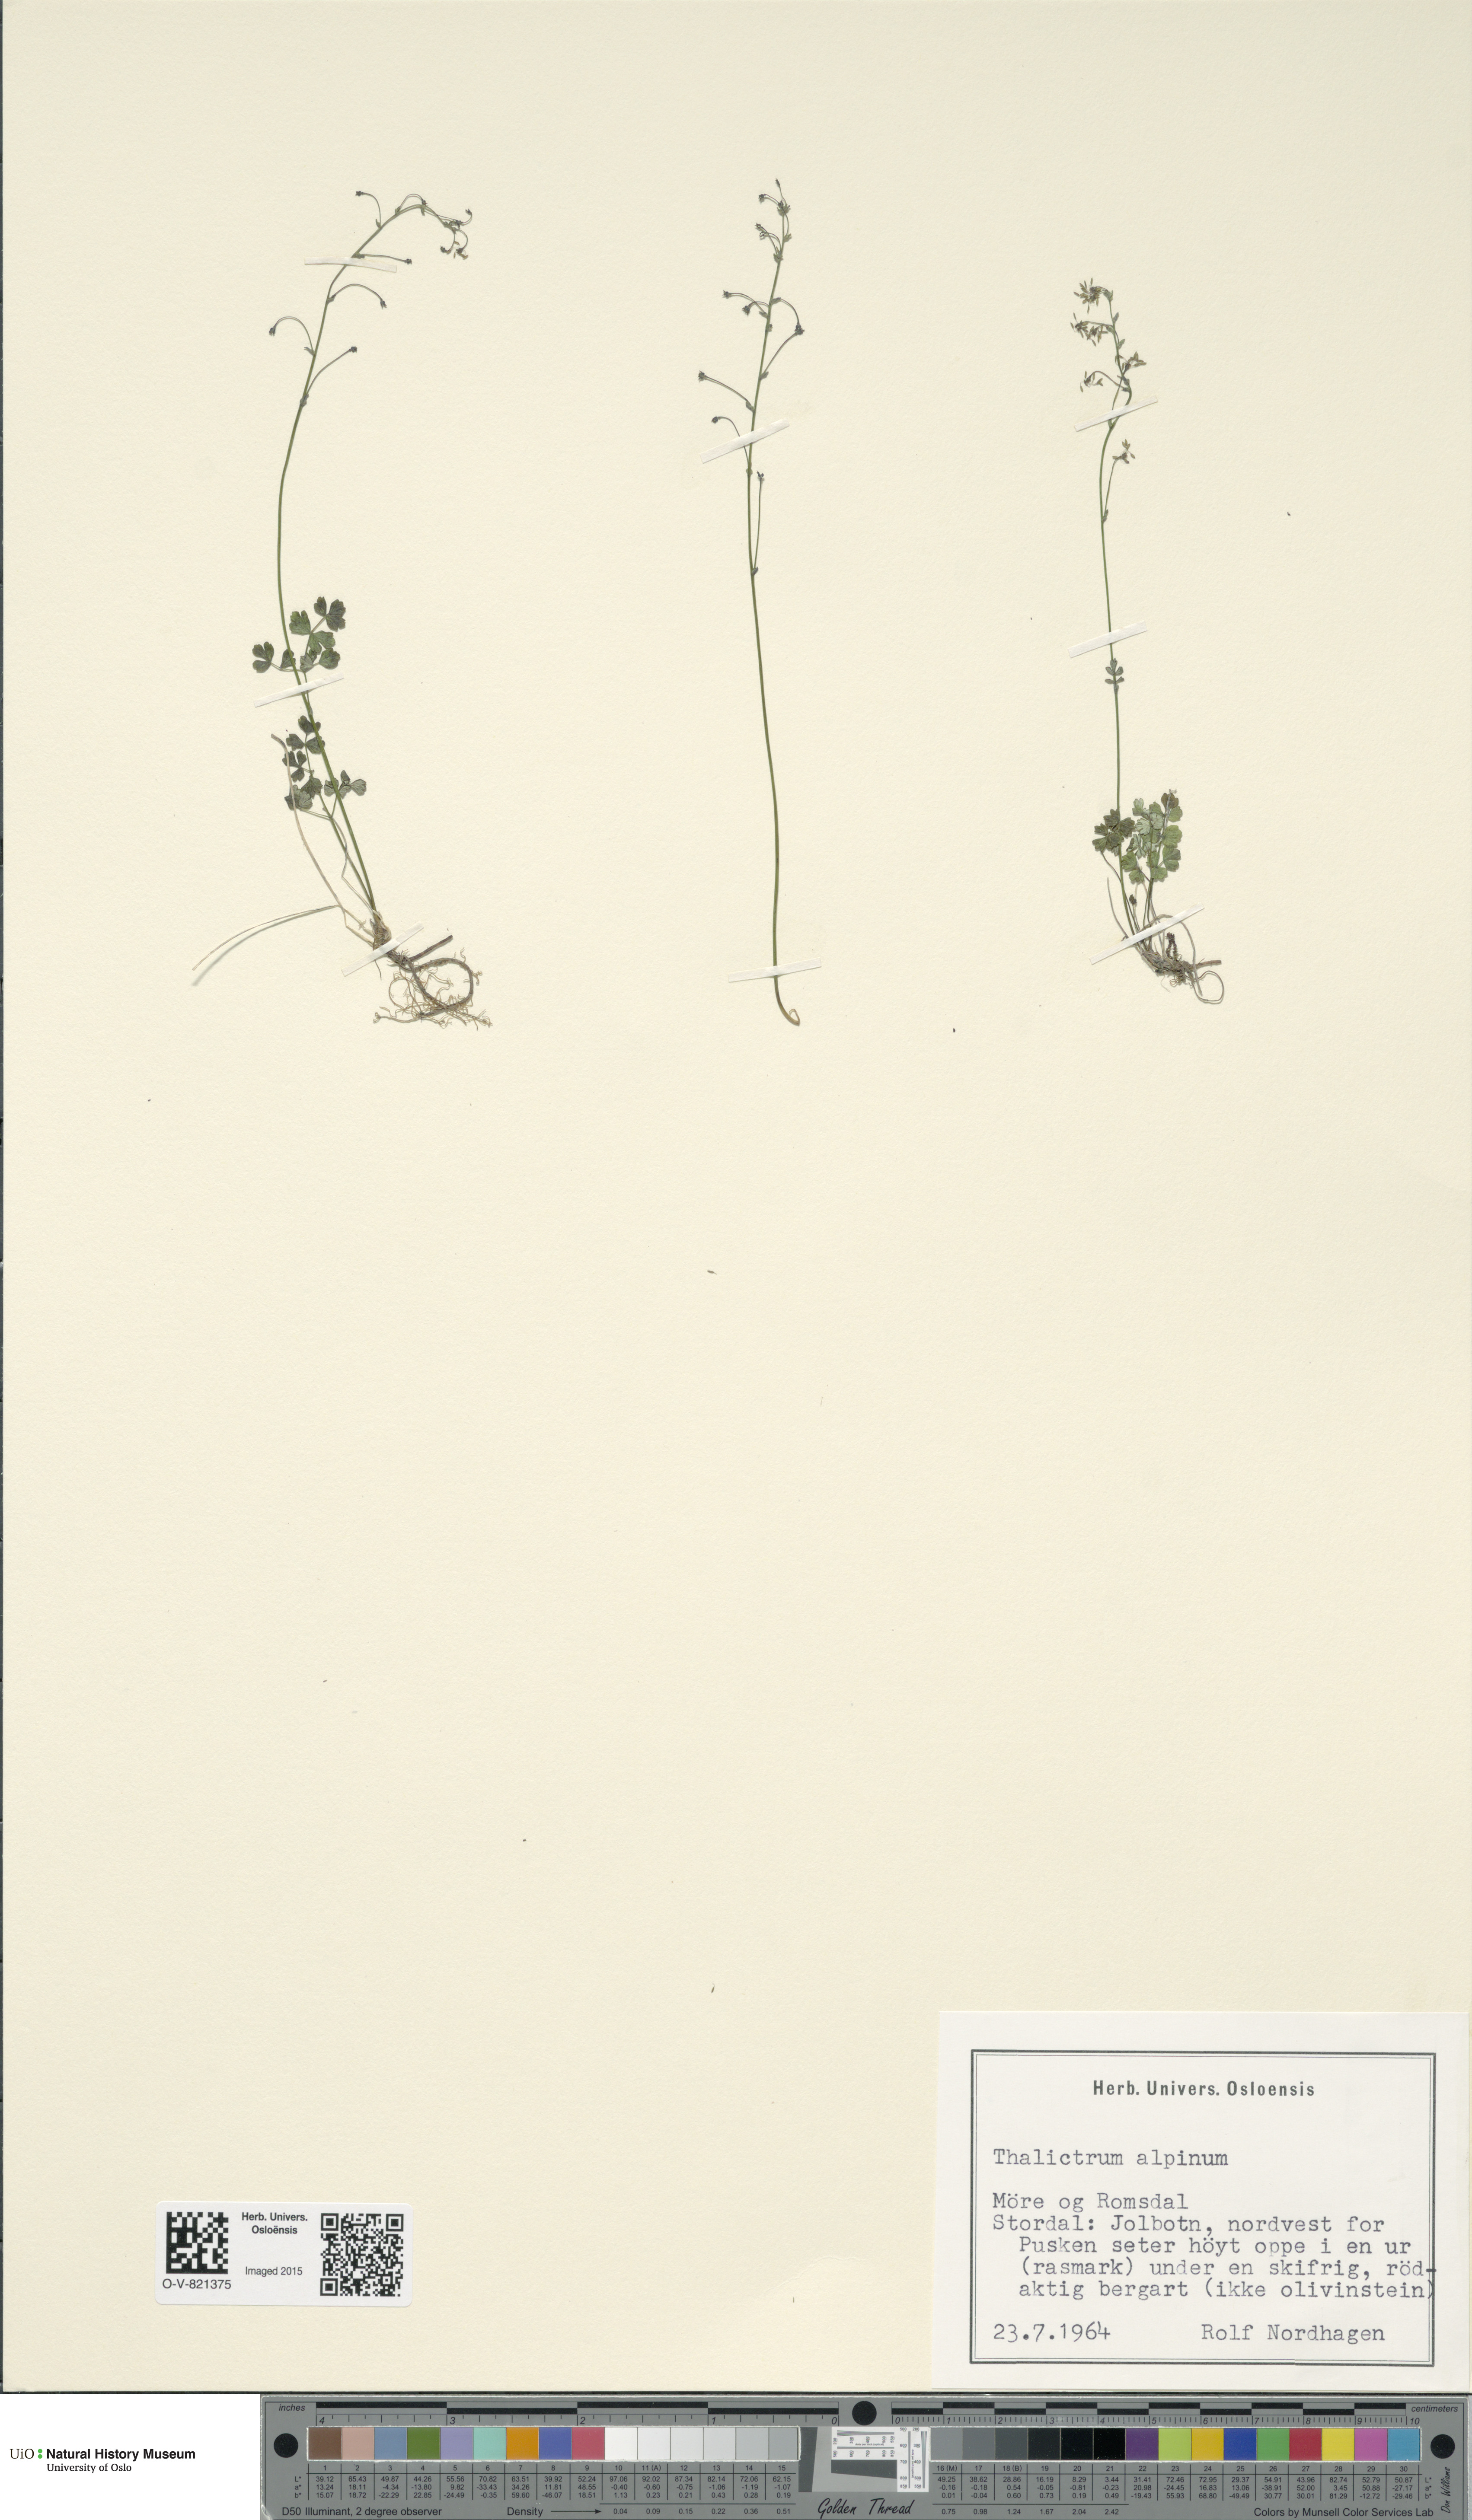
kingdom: Plantae
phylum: Tracheophyta
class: Magnoliopsida
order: Ranunculales
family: Ranunculaceae
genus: Thalictrum
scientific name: Thalictrum alpinum
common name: Alpine meadow-rue
